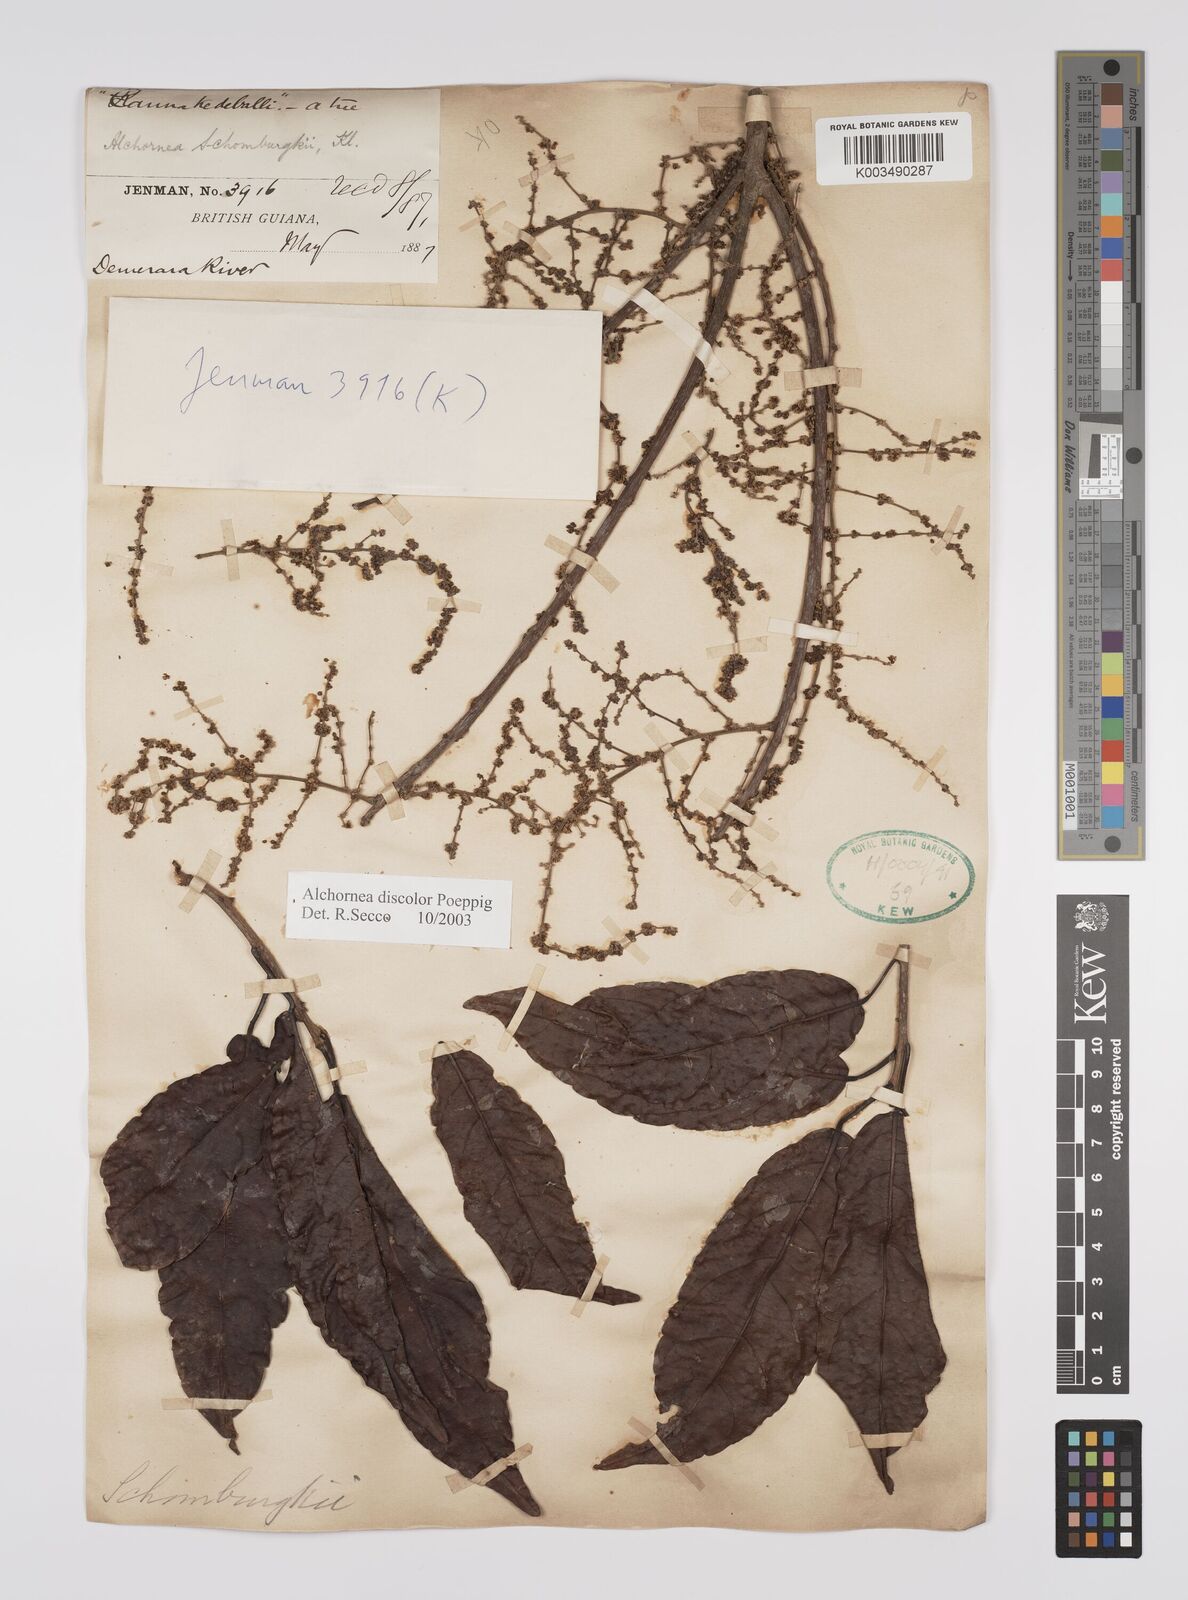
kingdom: Plantae
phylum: Tracheophyta
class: Magnoliopsida
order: Malpighiales
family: Euphorbiaceae
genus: Alchornea
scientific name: Alchornea discolor
